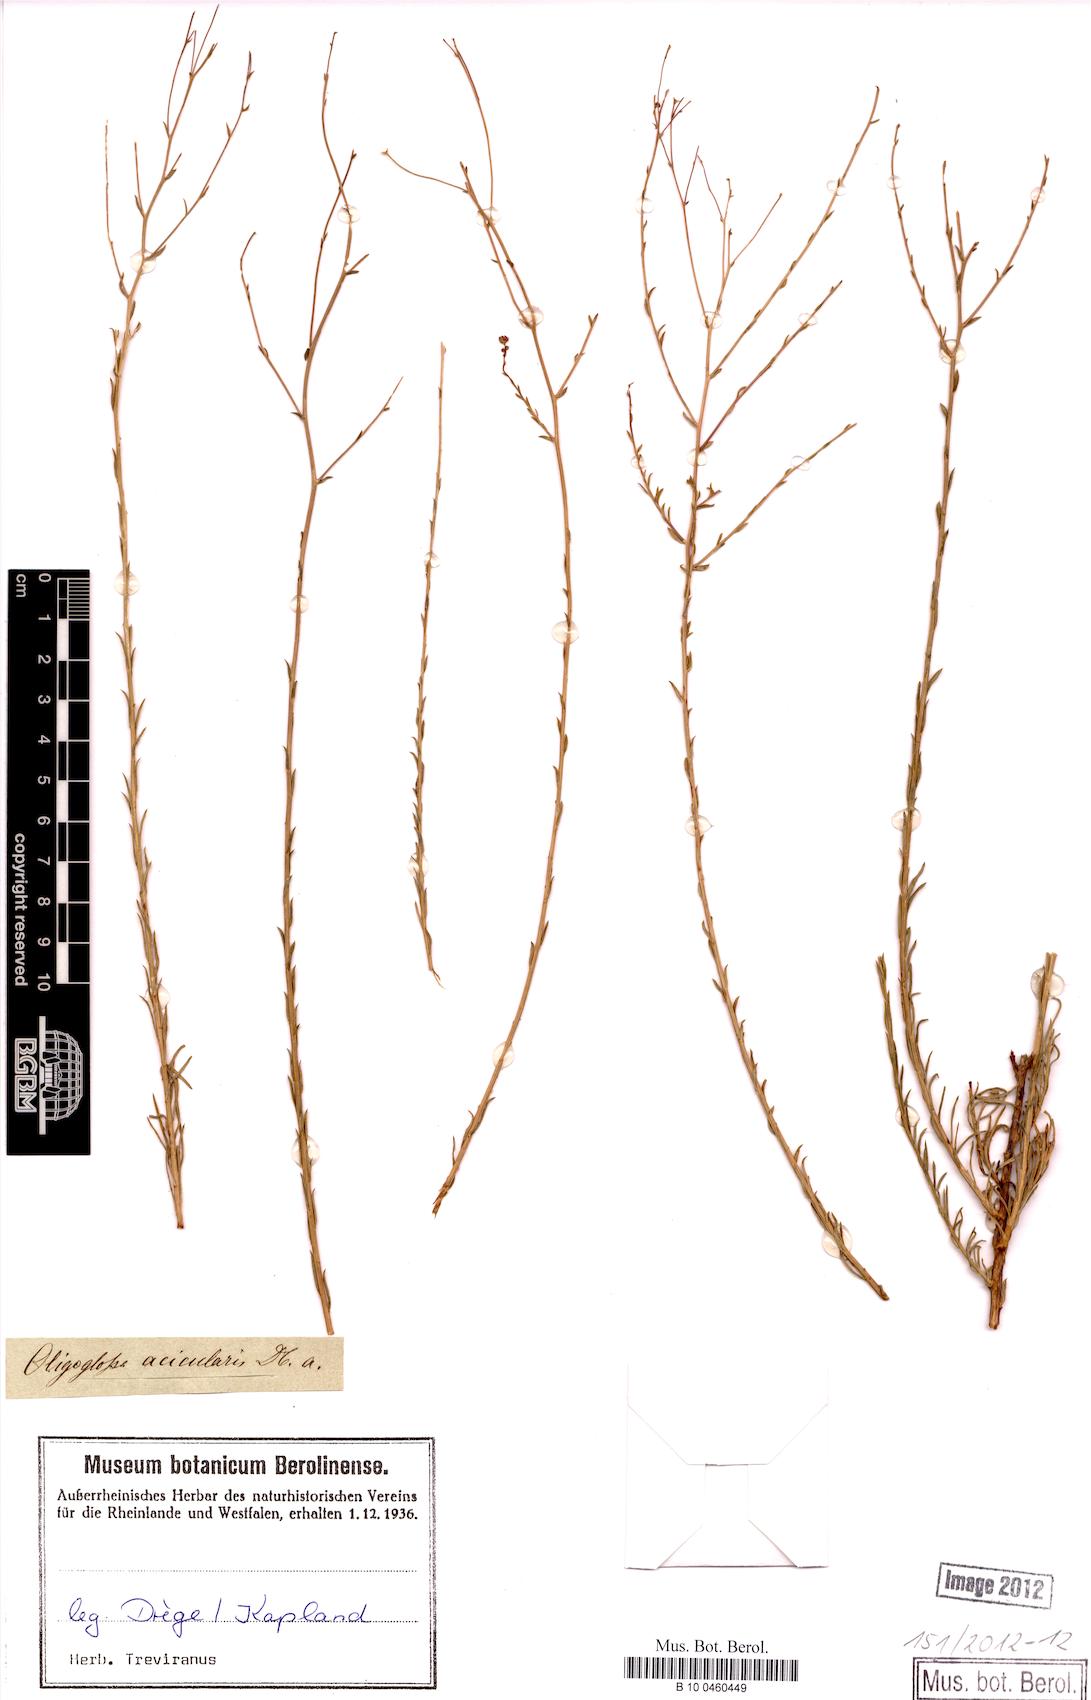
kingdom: Plantae
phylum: Tracheophyta
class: Magnoliopsida
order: Asterales
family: Asteraceae
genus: Phymaspermum
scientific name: Phymaspermum aciculare
